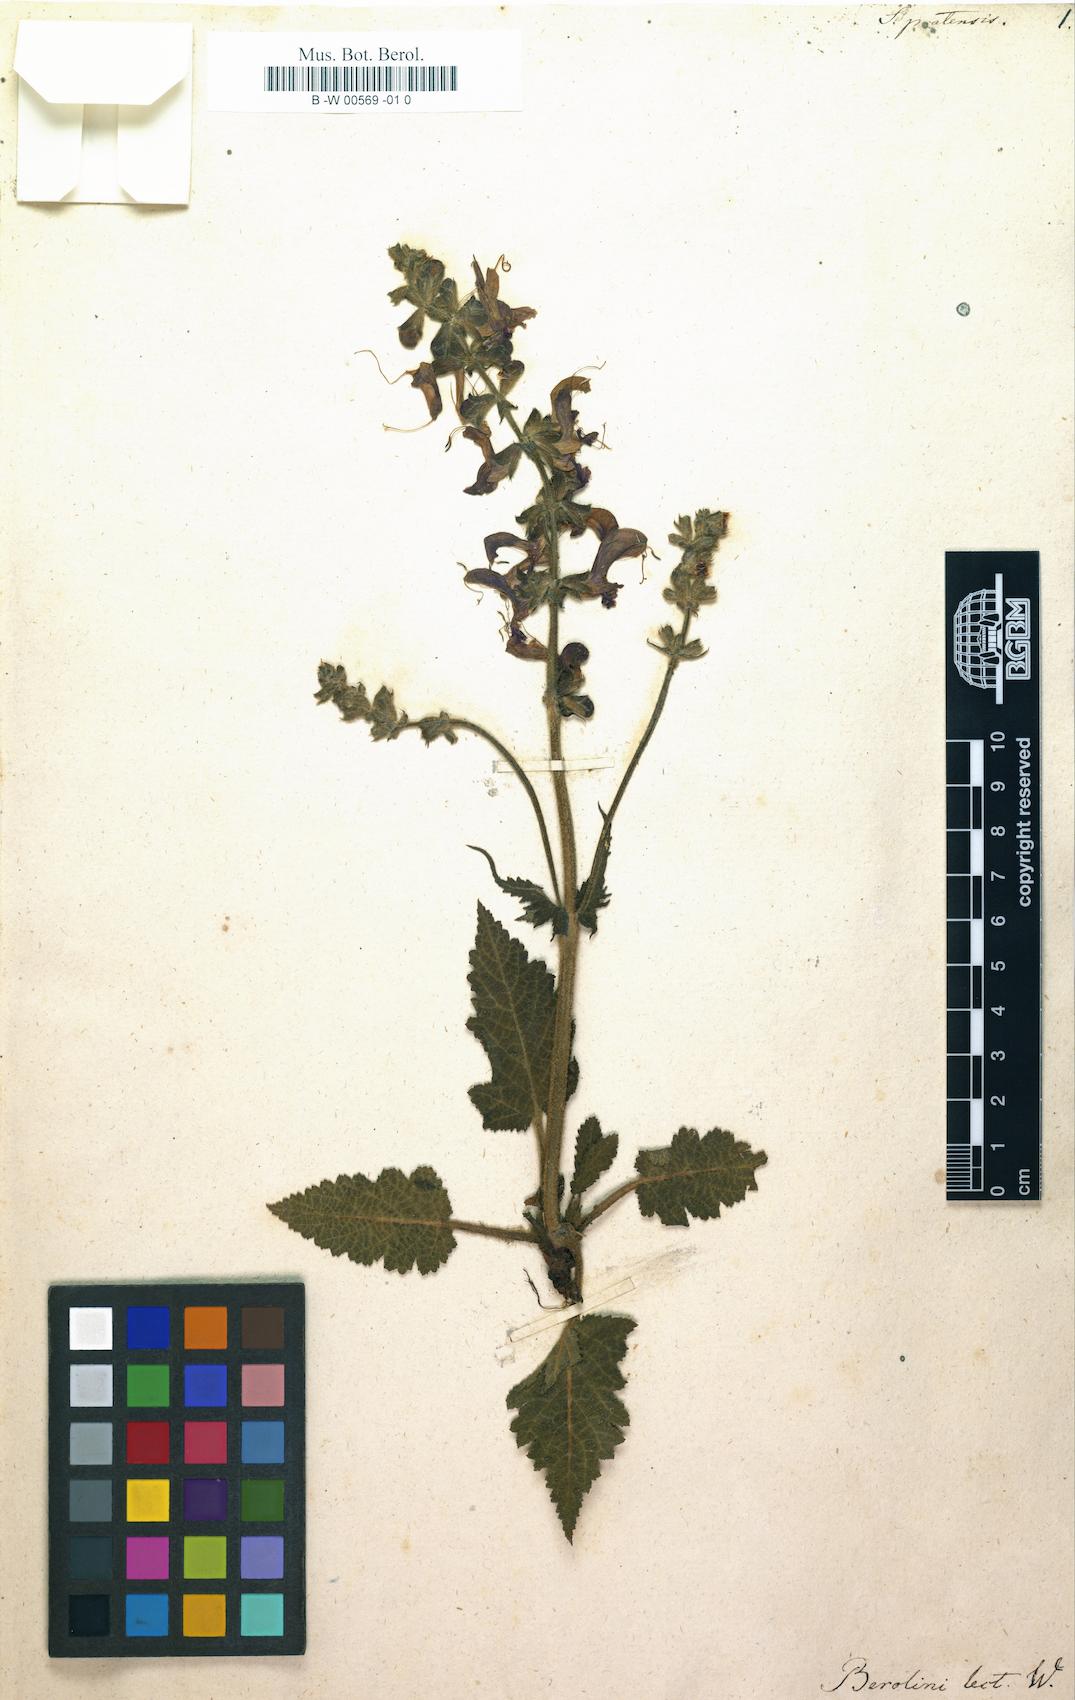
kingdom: Plantae
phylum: Tracheophyta
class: Magnoliopsida
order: Lamiales
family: Lamiaceae
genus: Salvia
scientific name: Salvia pratensis
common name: Meadow sage
